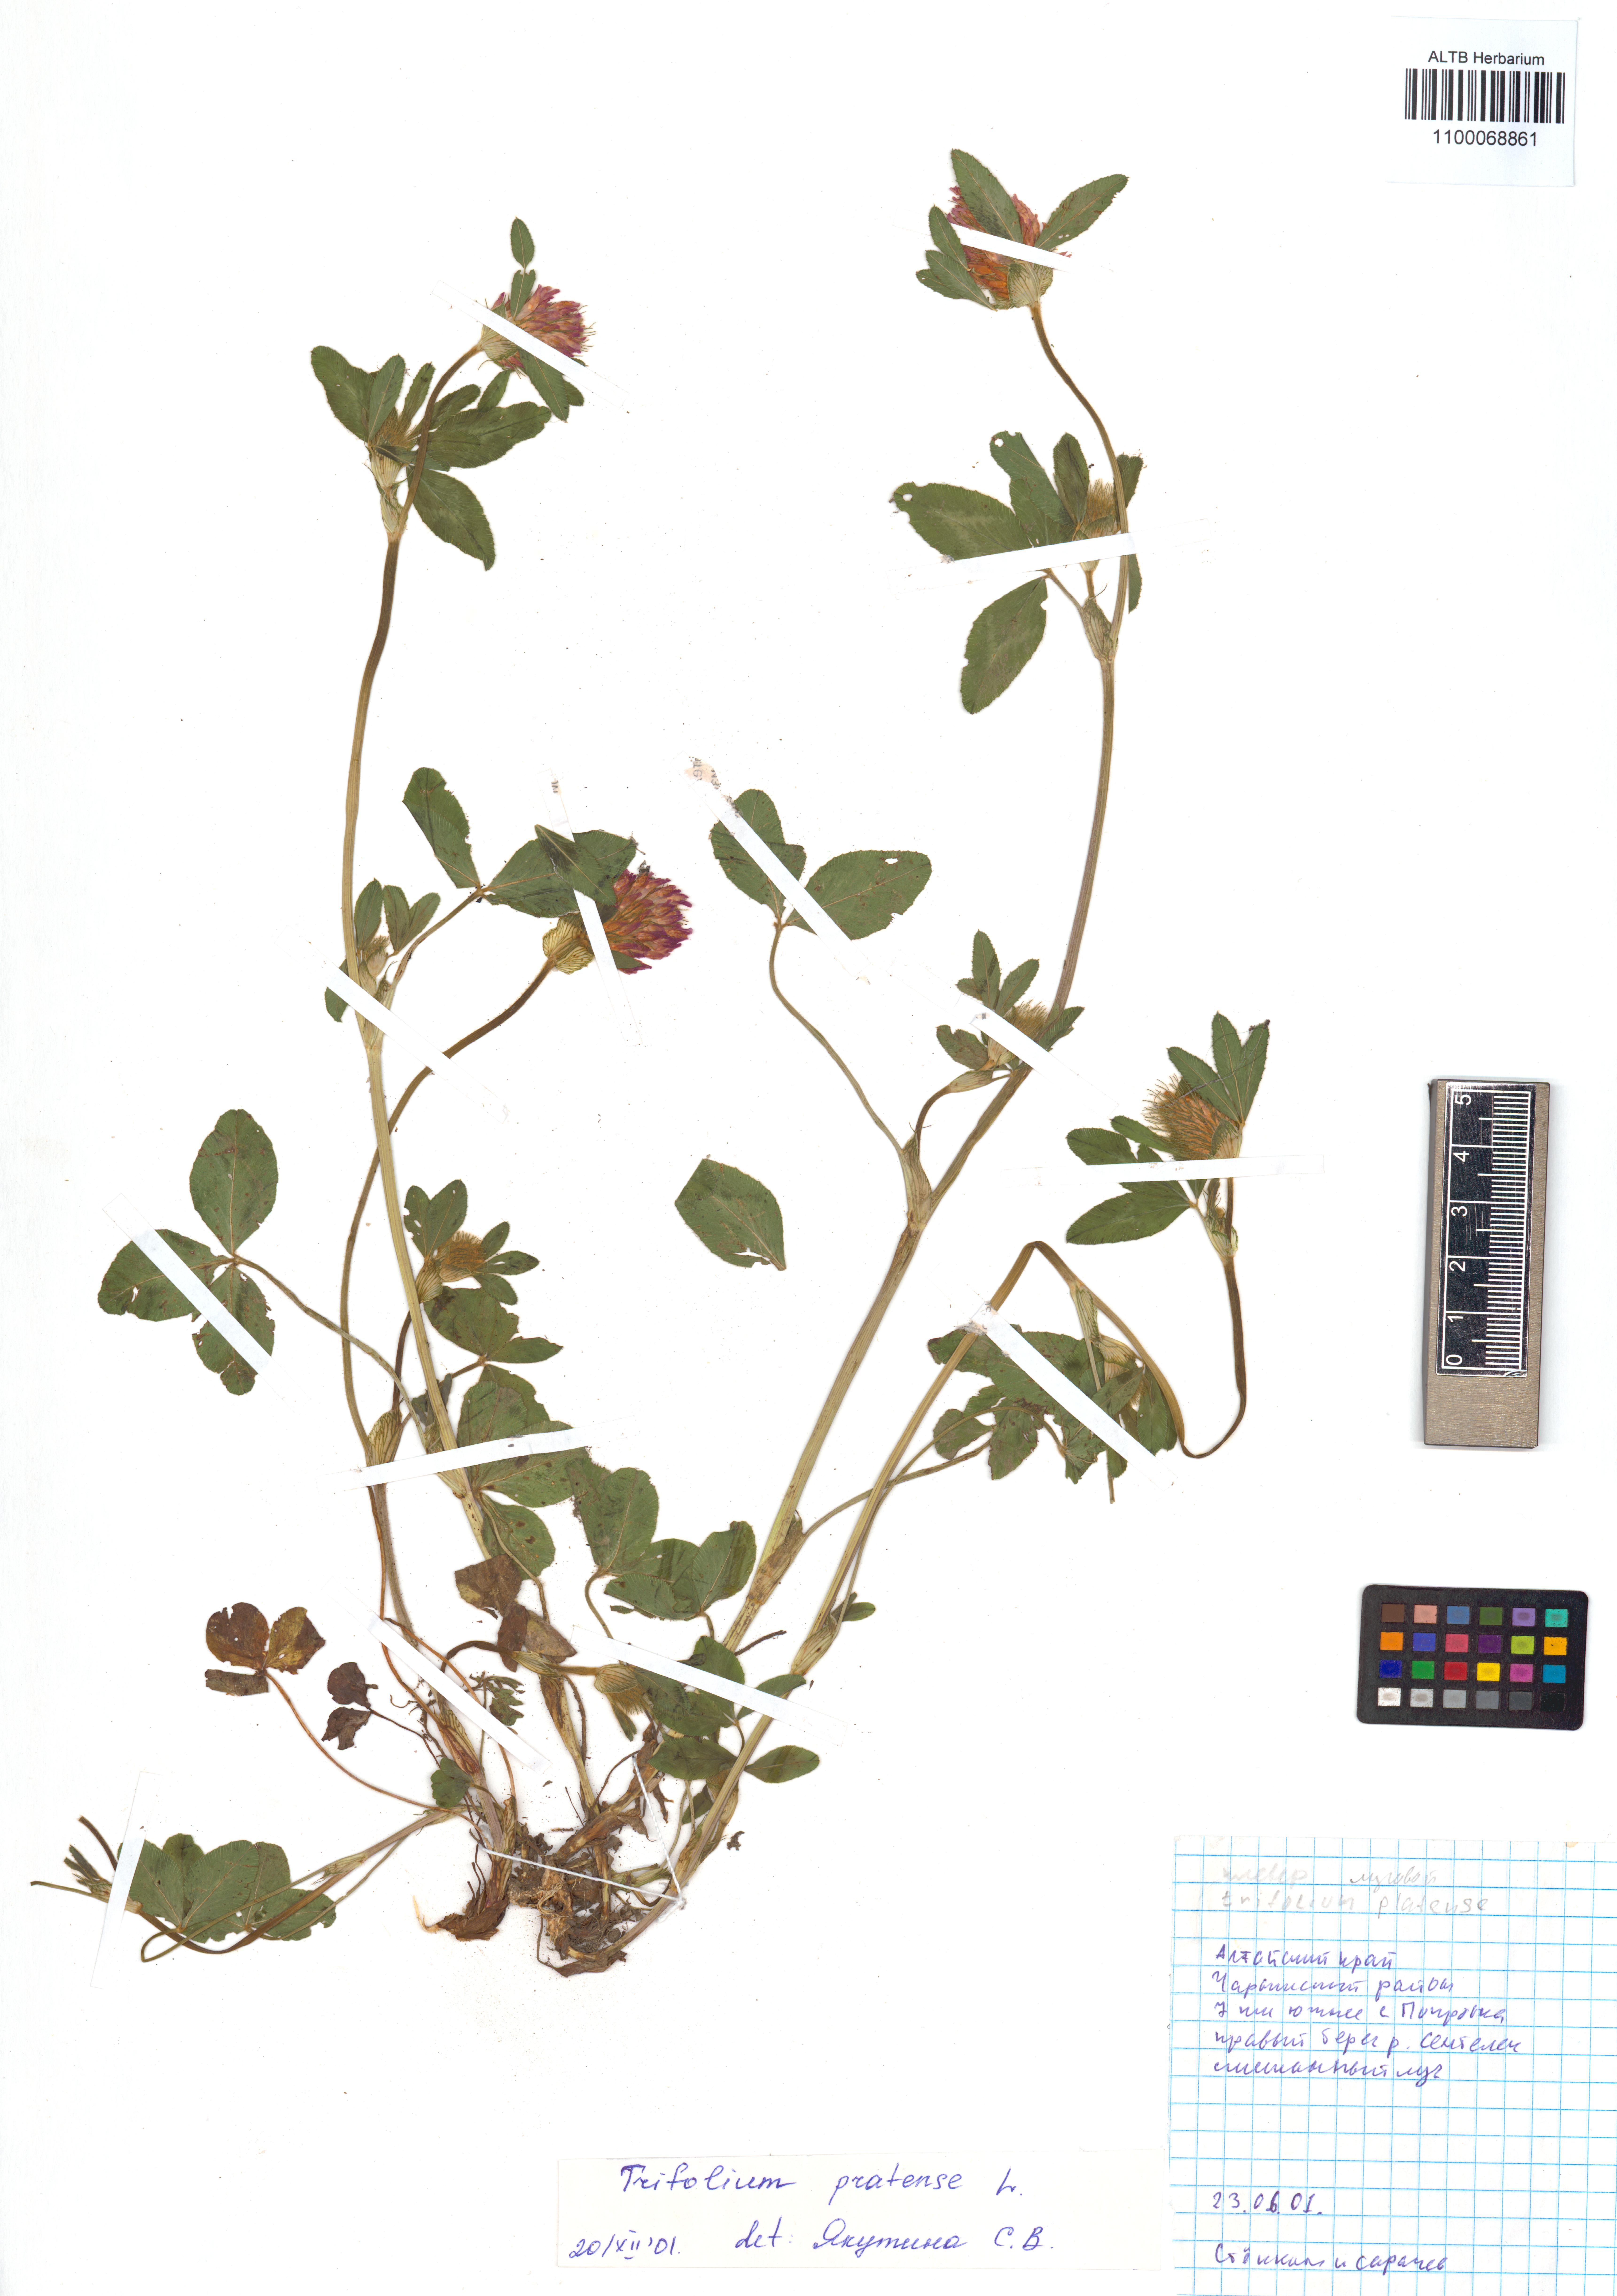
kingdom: Plantae
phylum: Tracheophyta
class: Magnoliopsida
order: Fabales
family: Fabaceae
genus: Trifolium
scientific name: Trifolium pratense
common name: Red clover
